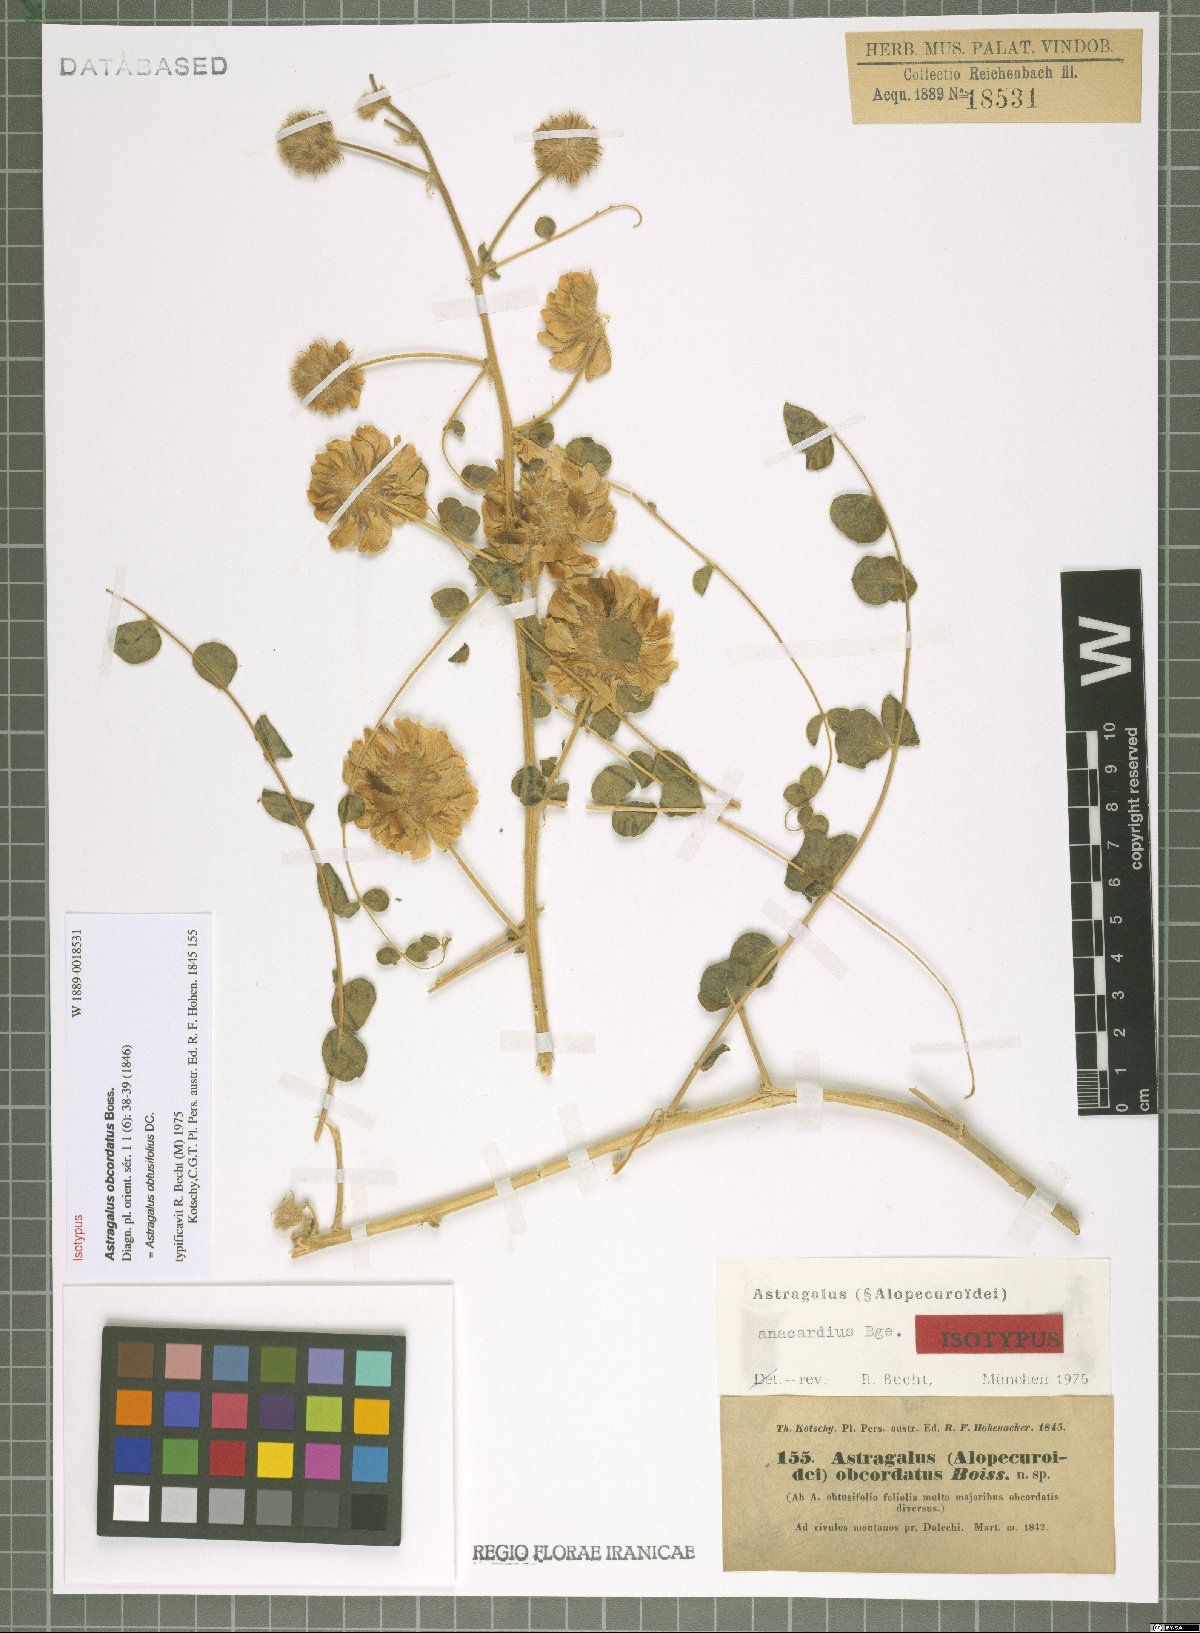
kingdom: Plantae
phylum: Tracheophyta
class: Magnoliopsida
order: Fabales
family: Fabaceae
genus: Astragalus
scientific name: Astragalus obtusifolius
